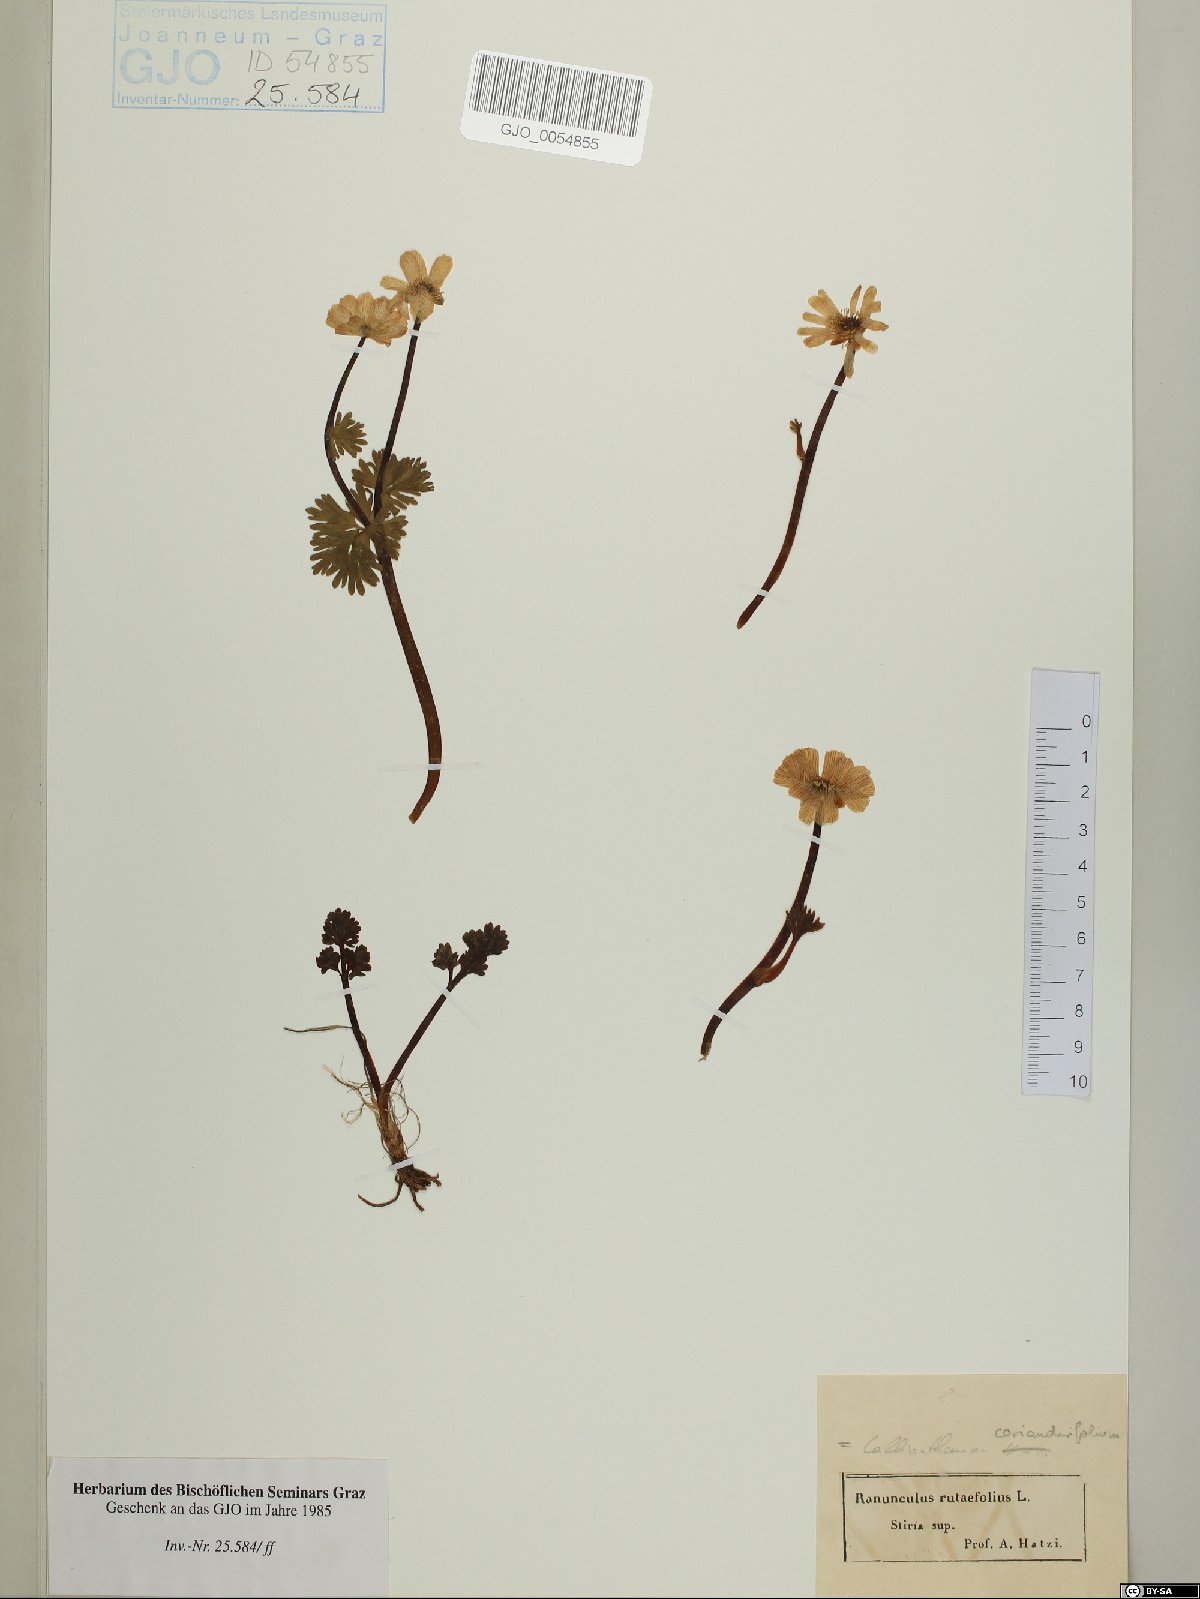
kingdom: Plantae
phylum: Tracheophyta
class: Magnoliopsida
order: Ranunculales
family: Ranunculaceae
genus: Callianthemum
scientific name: Callianthemum coriandrifolium
